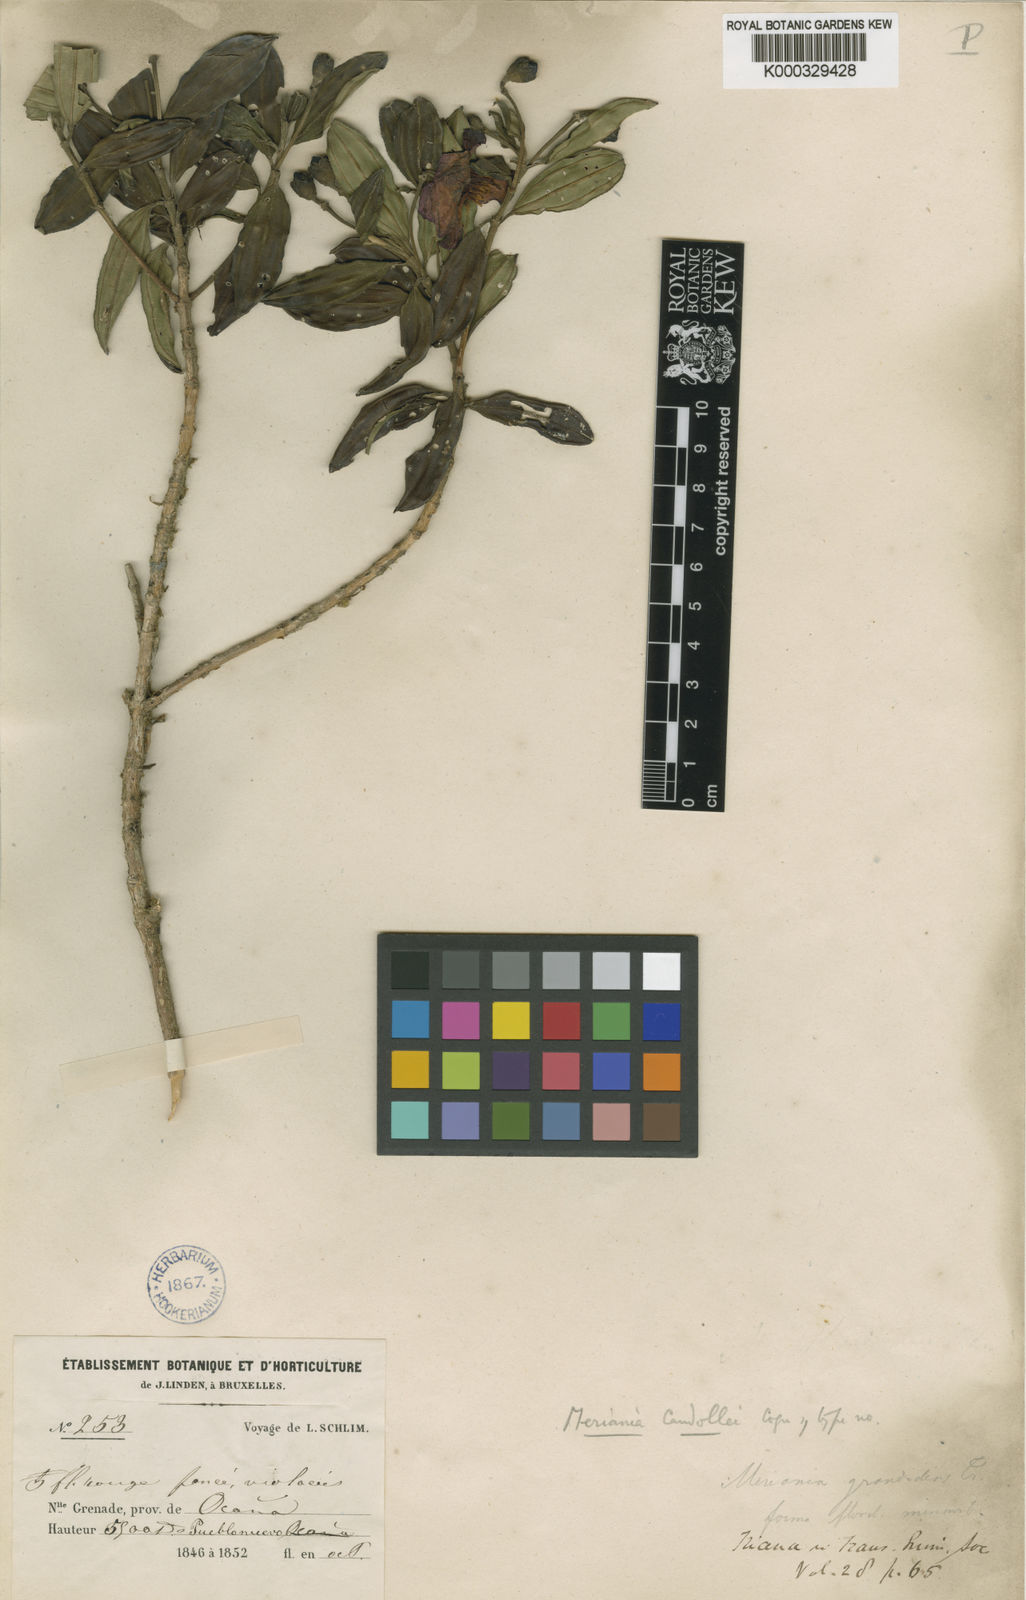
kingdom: Plantae
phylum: Tracheophyta
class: Magnoliopsida
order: Myrtales
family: Melastomataceae
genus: Meriania
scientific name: Meriania speciosa
